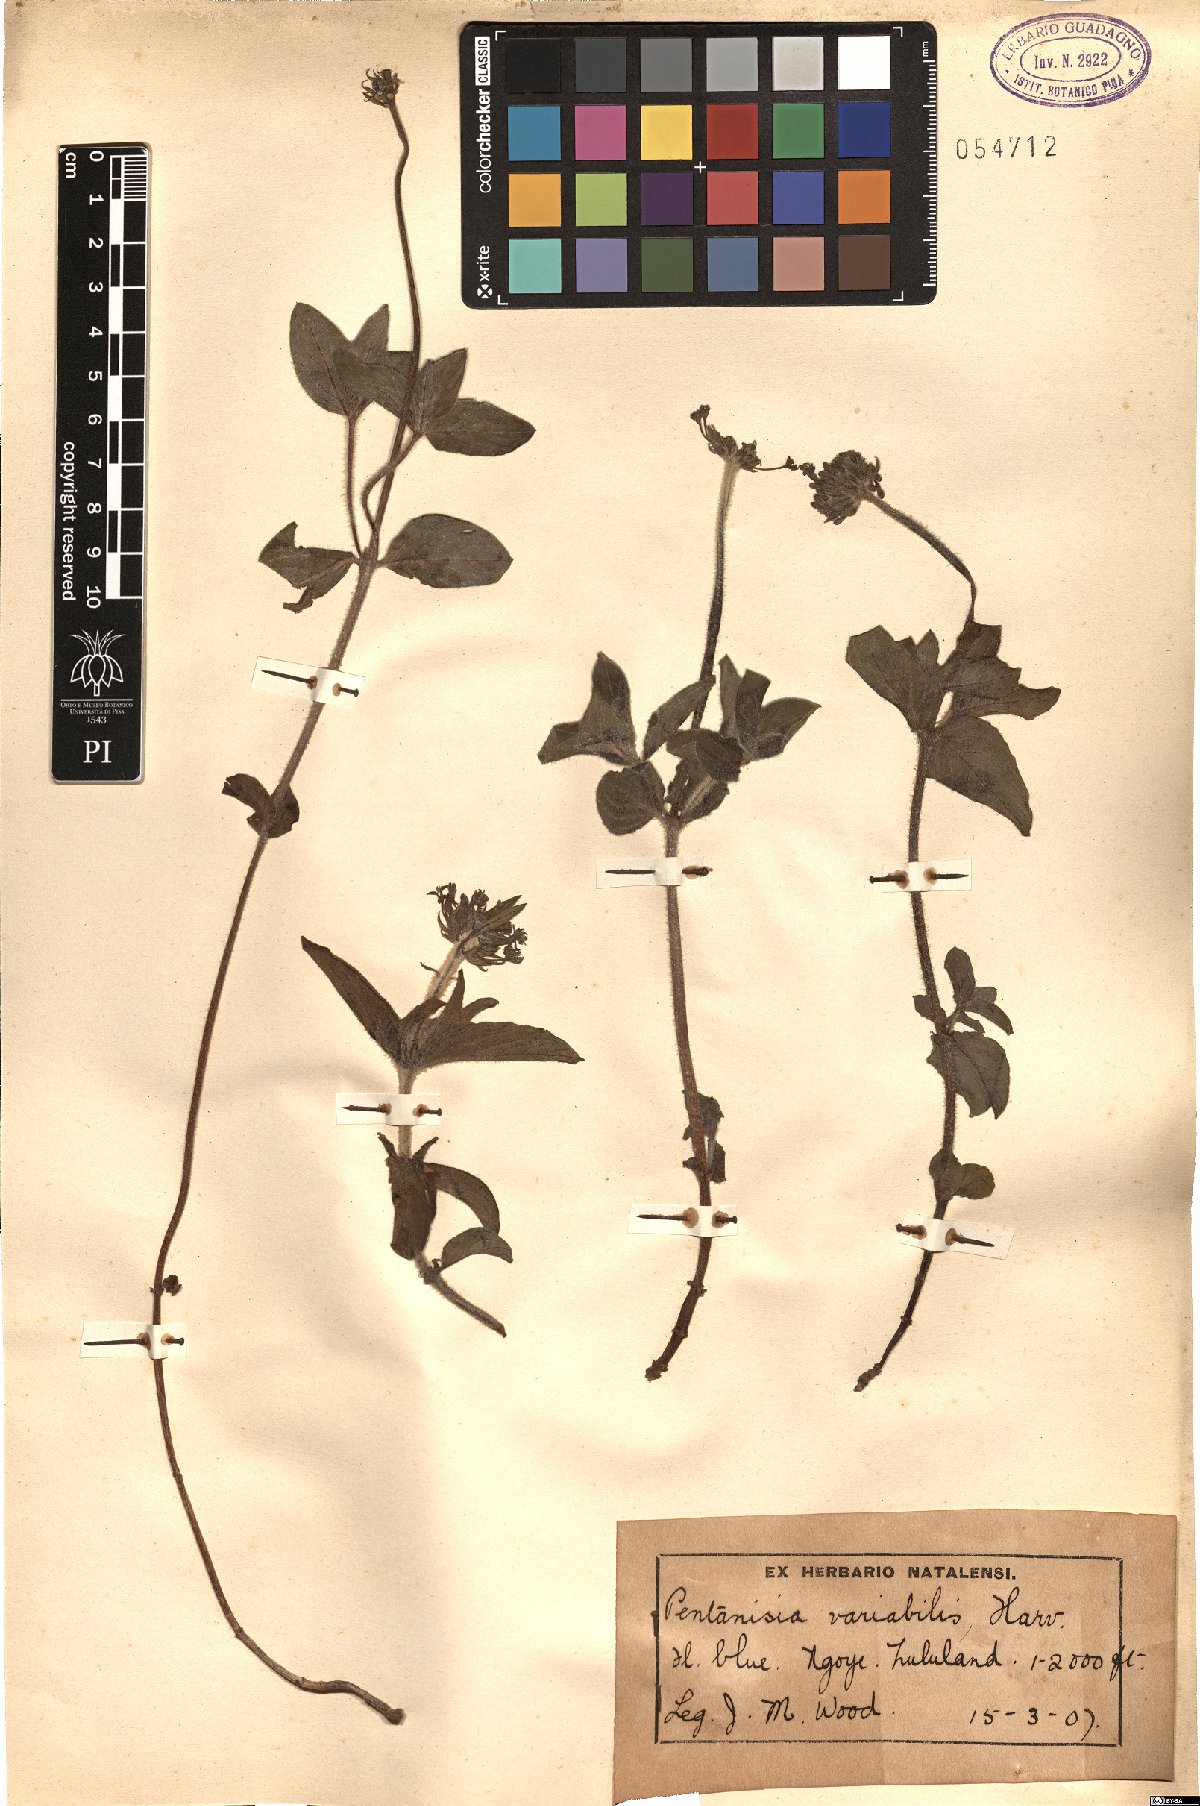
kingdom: Plantae
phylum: Tracheophyta
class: Magnoliopsida
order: Gentianales
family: Rubiaceae
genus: Pentanisia
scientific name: Pentanisia prunelloides
